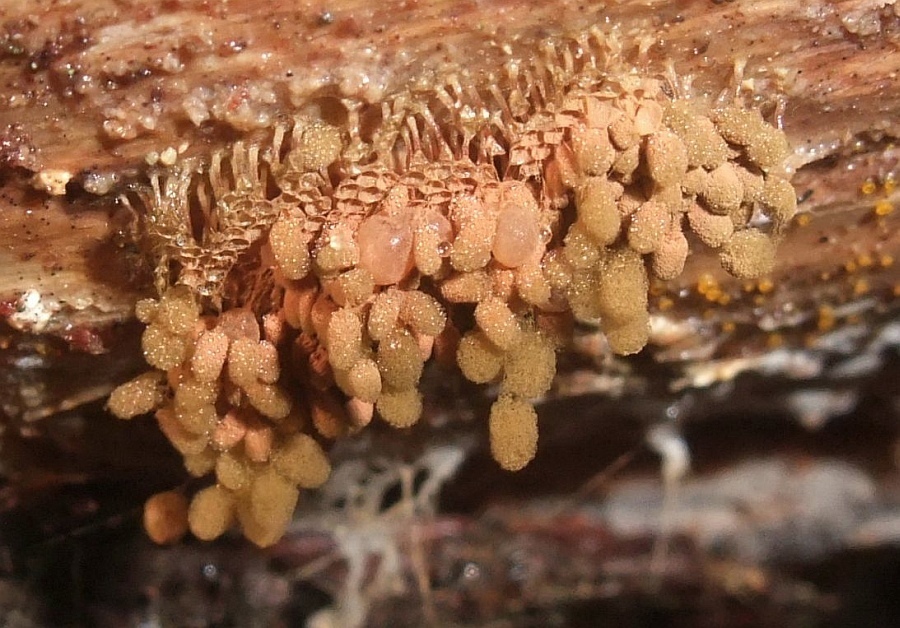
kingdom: Protozoa
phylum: Mycetozoa
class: Myxomycetes
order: Trichiales
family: Arcyriaceae
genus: Arcyria
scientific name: Arcyria ferruginea
